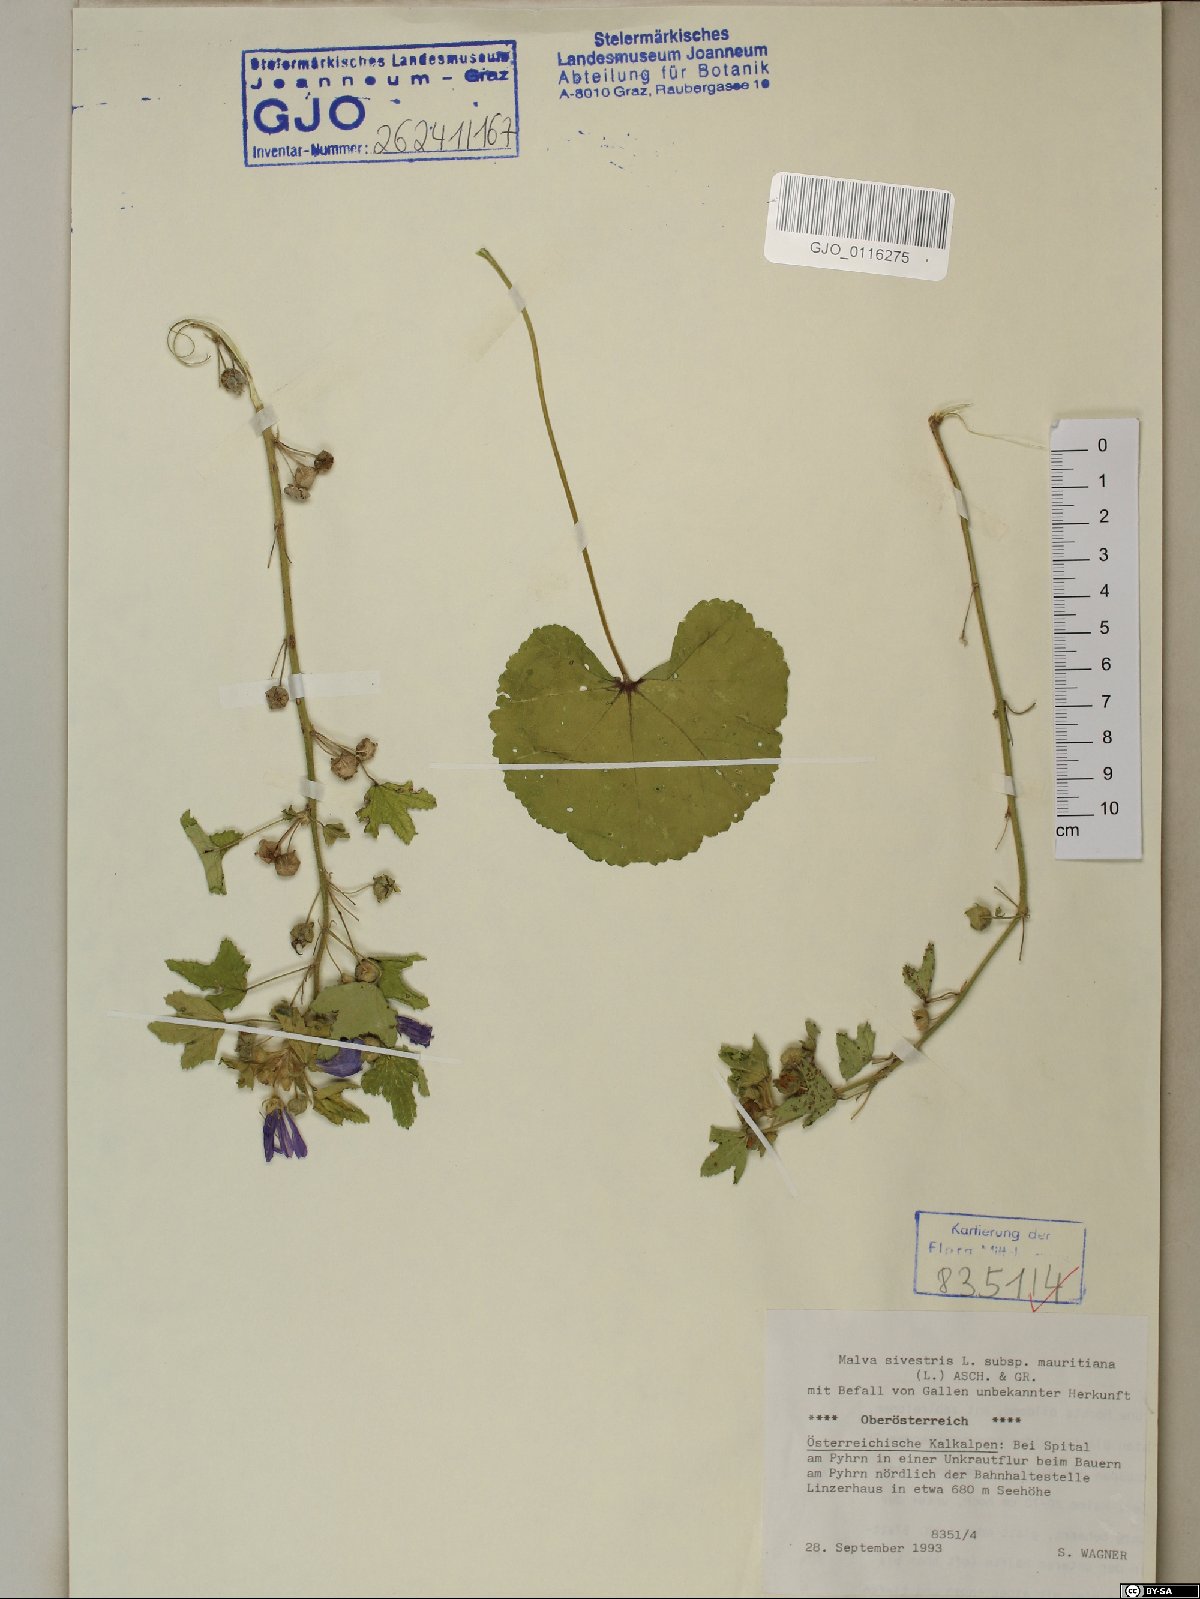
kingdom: Plantae
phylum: Tracheophyta
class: Magnoliopsida
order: Malvales
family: Malvaceae
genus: Malva
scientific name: Malva sylvestris
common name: Common mallow
